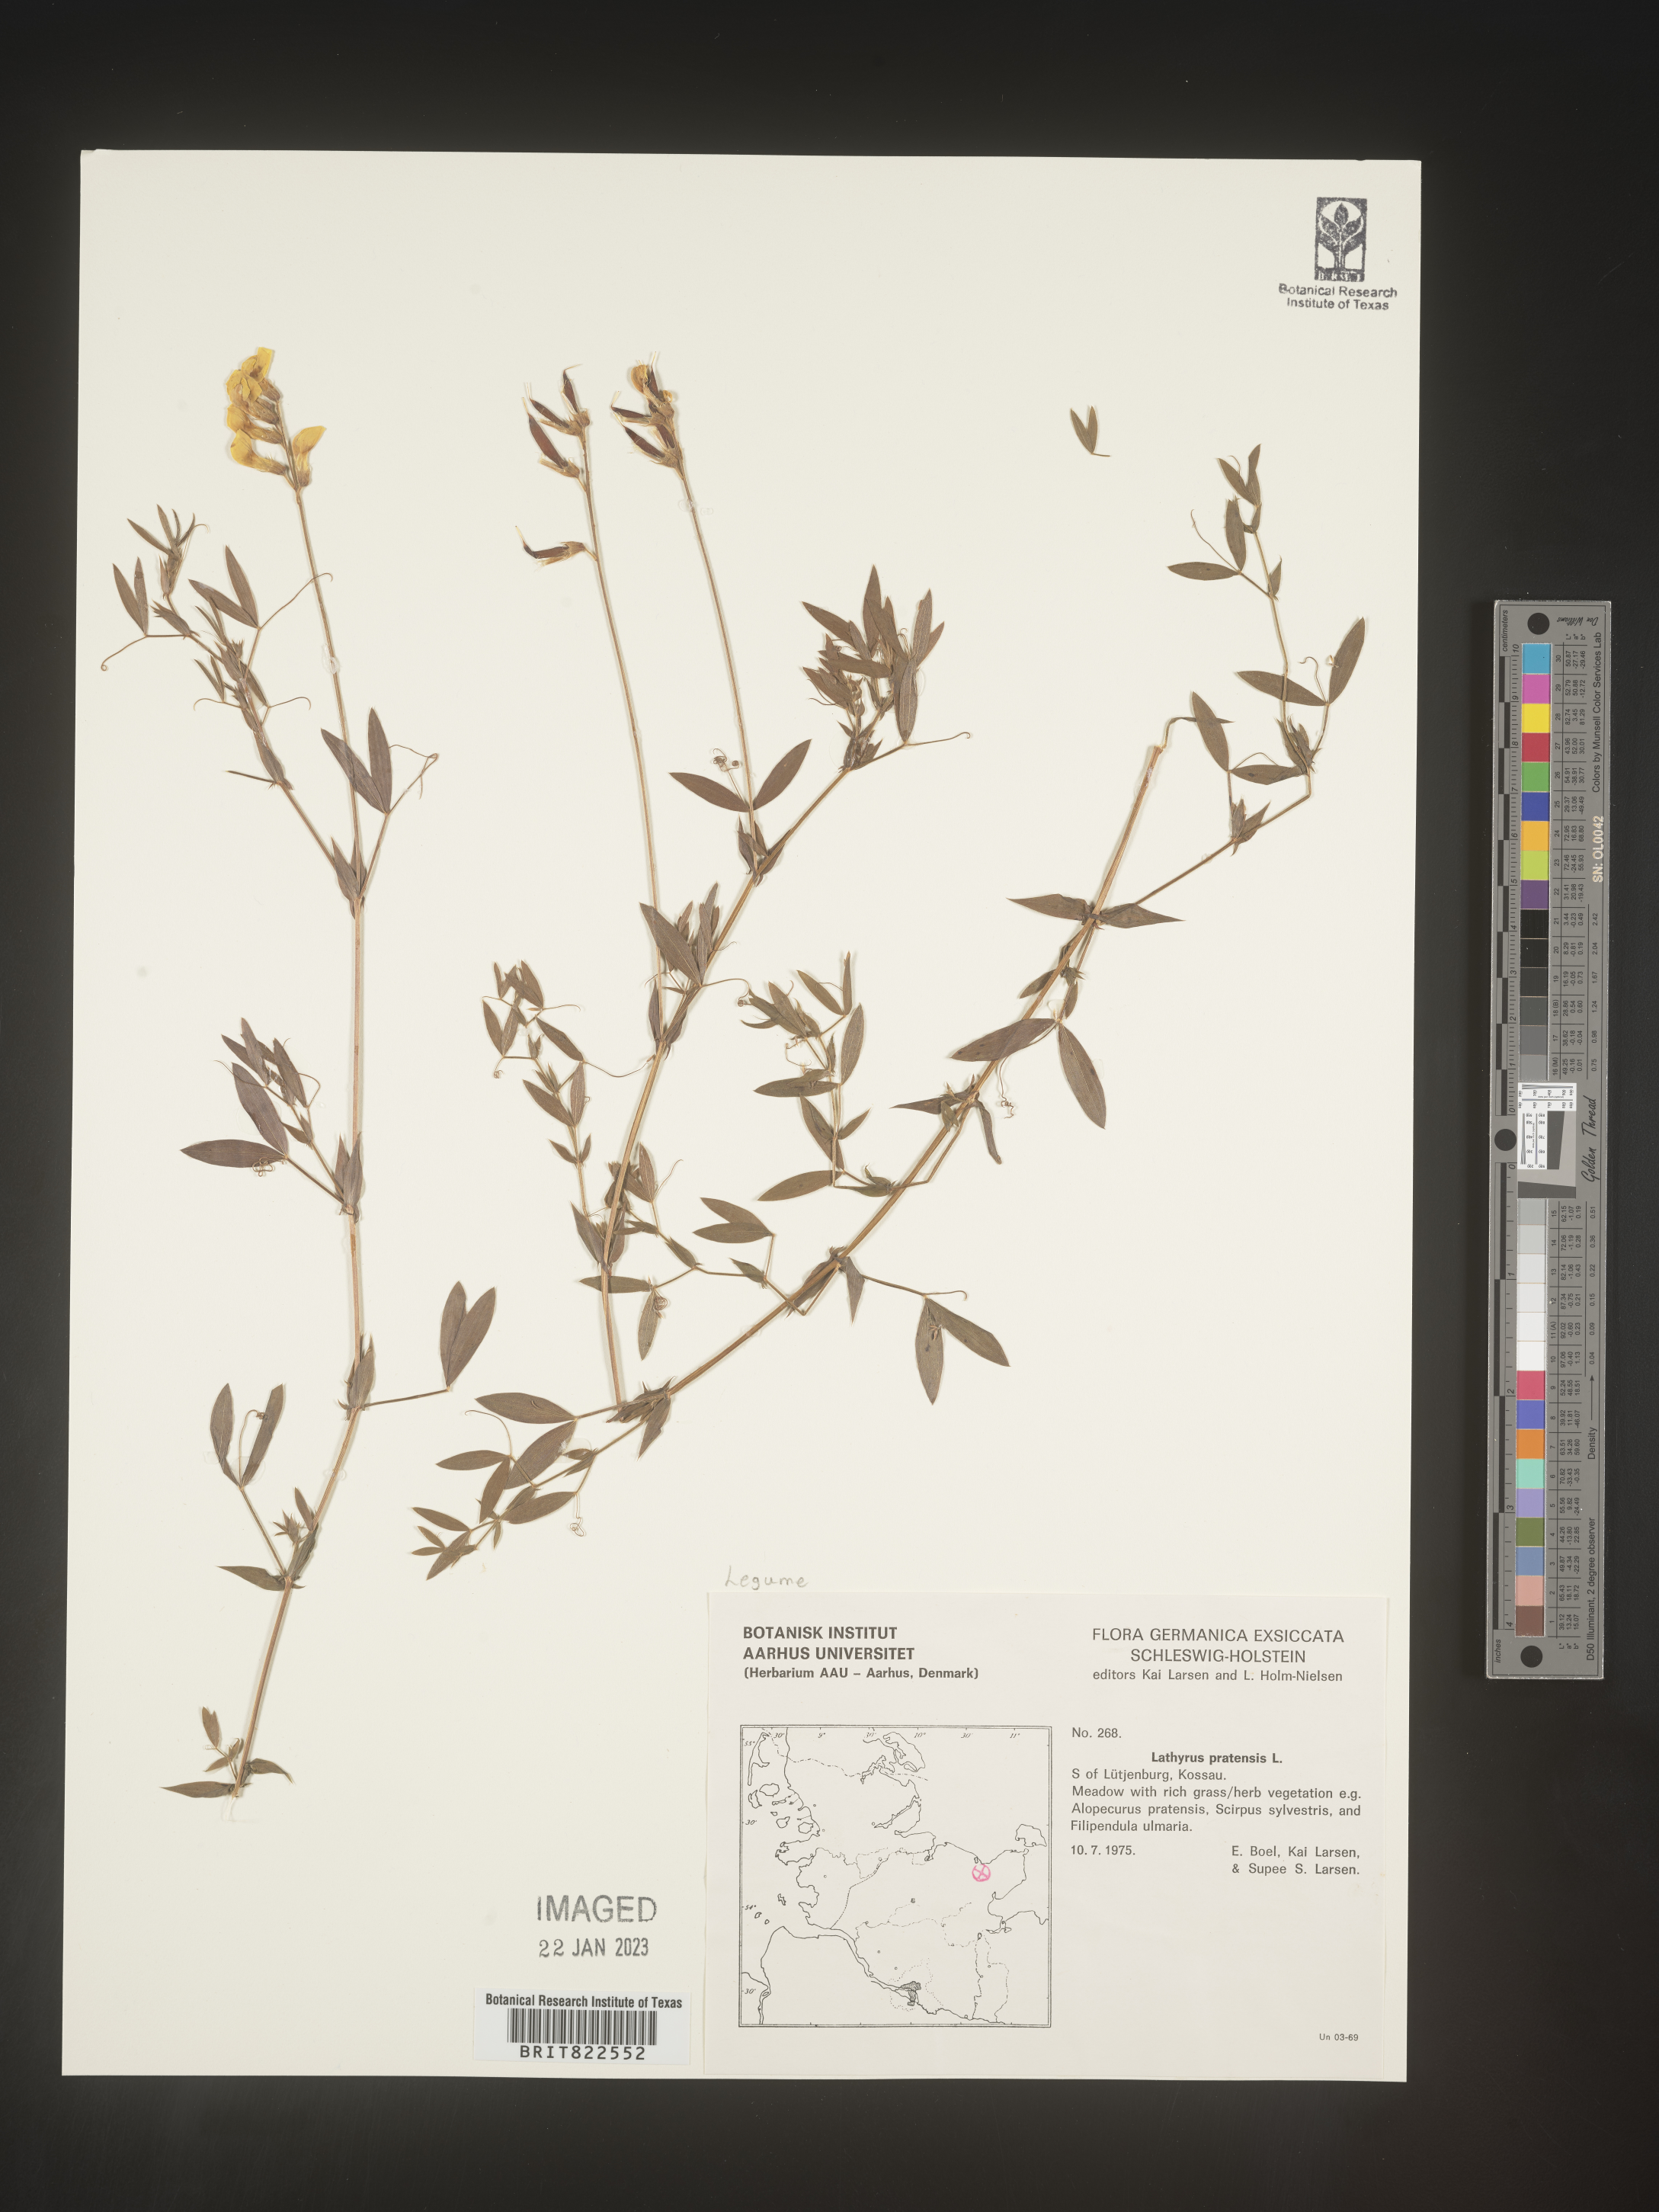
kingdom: Plantae
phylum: Tracheophyta
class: Magnoliopsida
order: Fabales
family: Fabaceae
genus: Lathyrus
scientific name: Lathyrus
